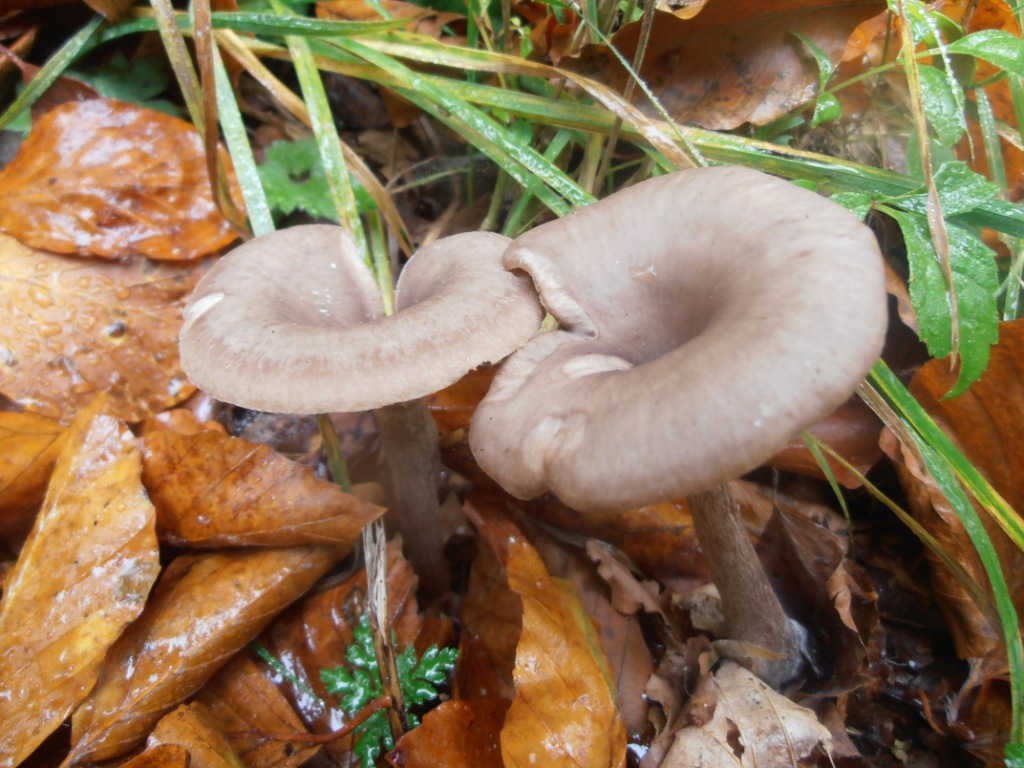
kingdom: Fungi
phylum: Basidiomycota
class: Agaricomycetes
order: Agaricales
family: Pseudoclitocybaceae
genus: Pseudoclitocybe
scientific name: Pseudoclitocybe cyathiformis
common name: almindelig bægertragthat
